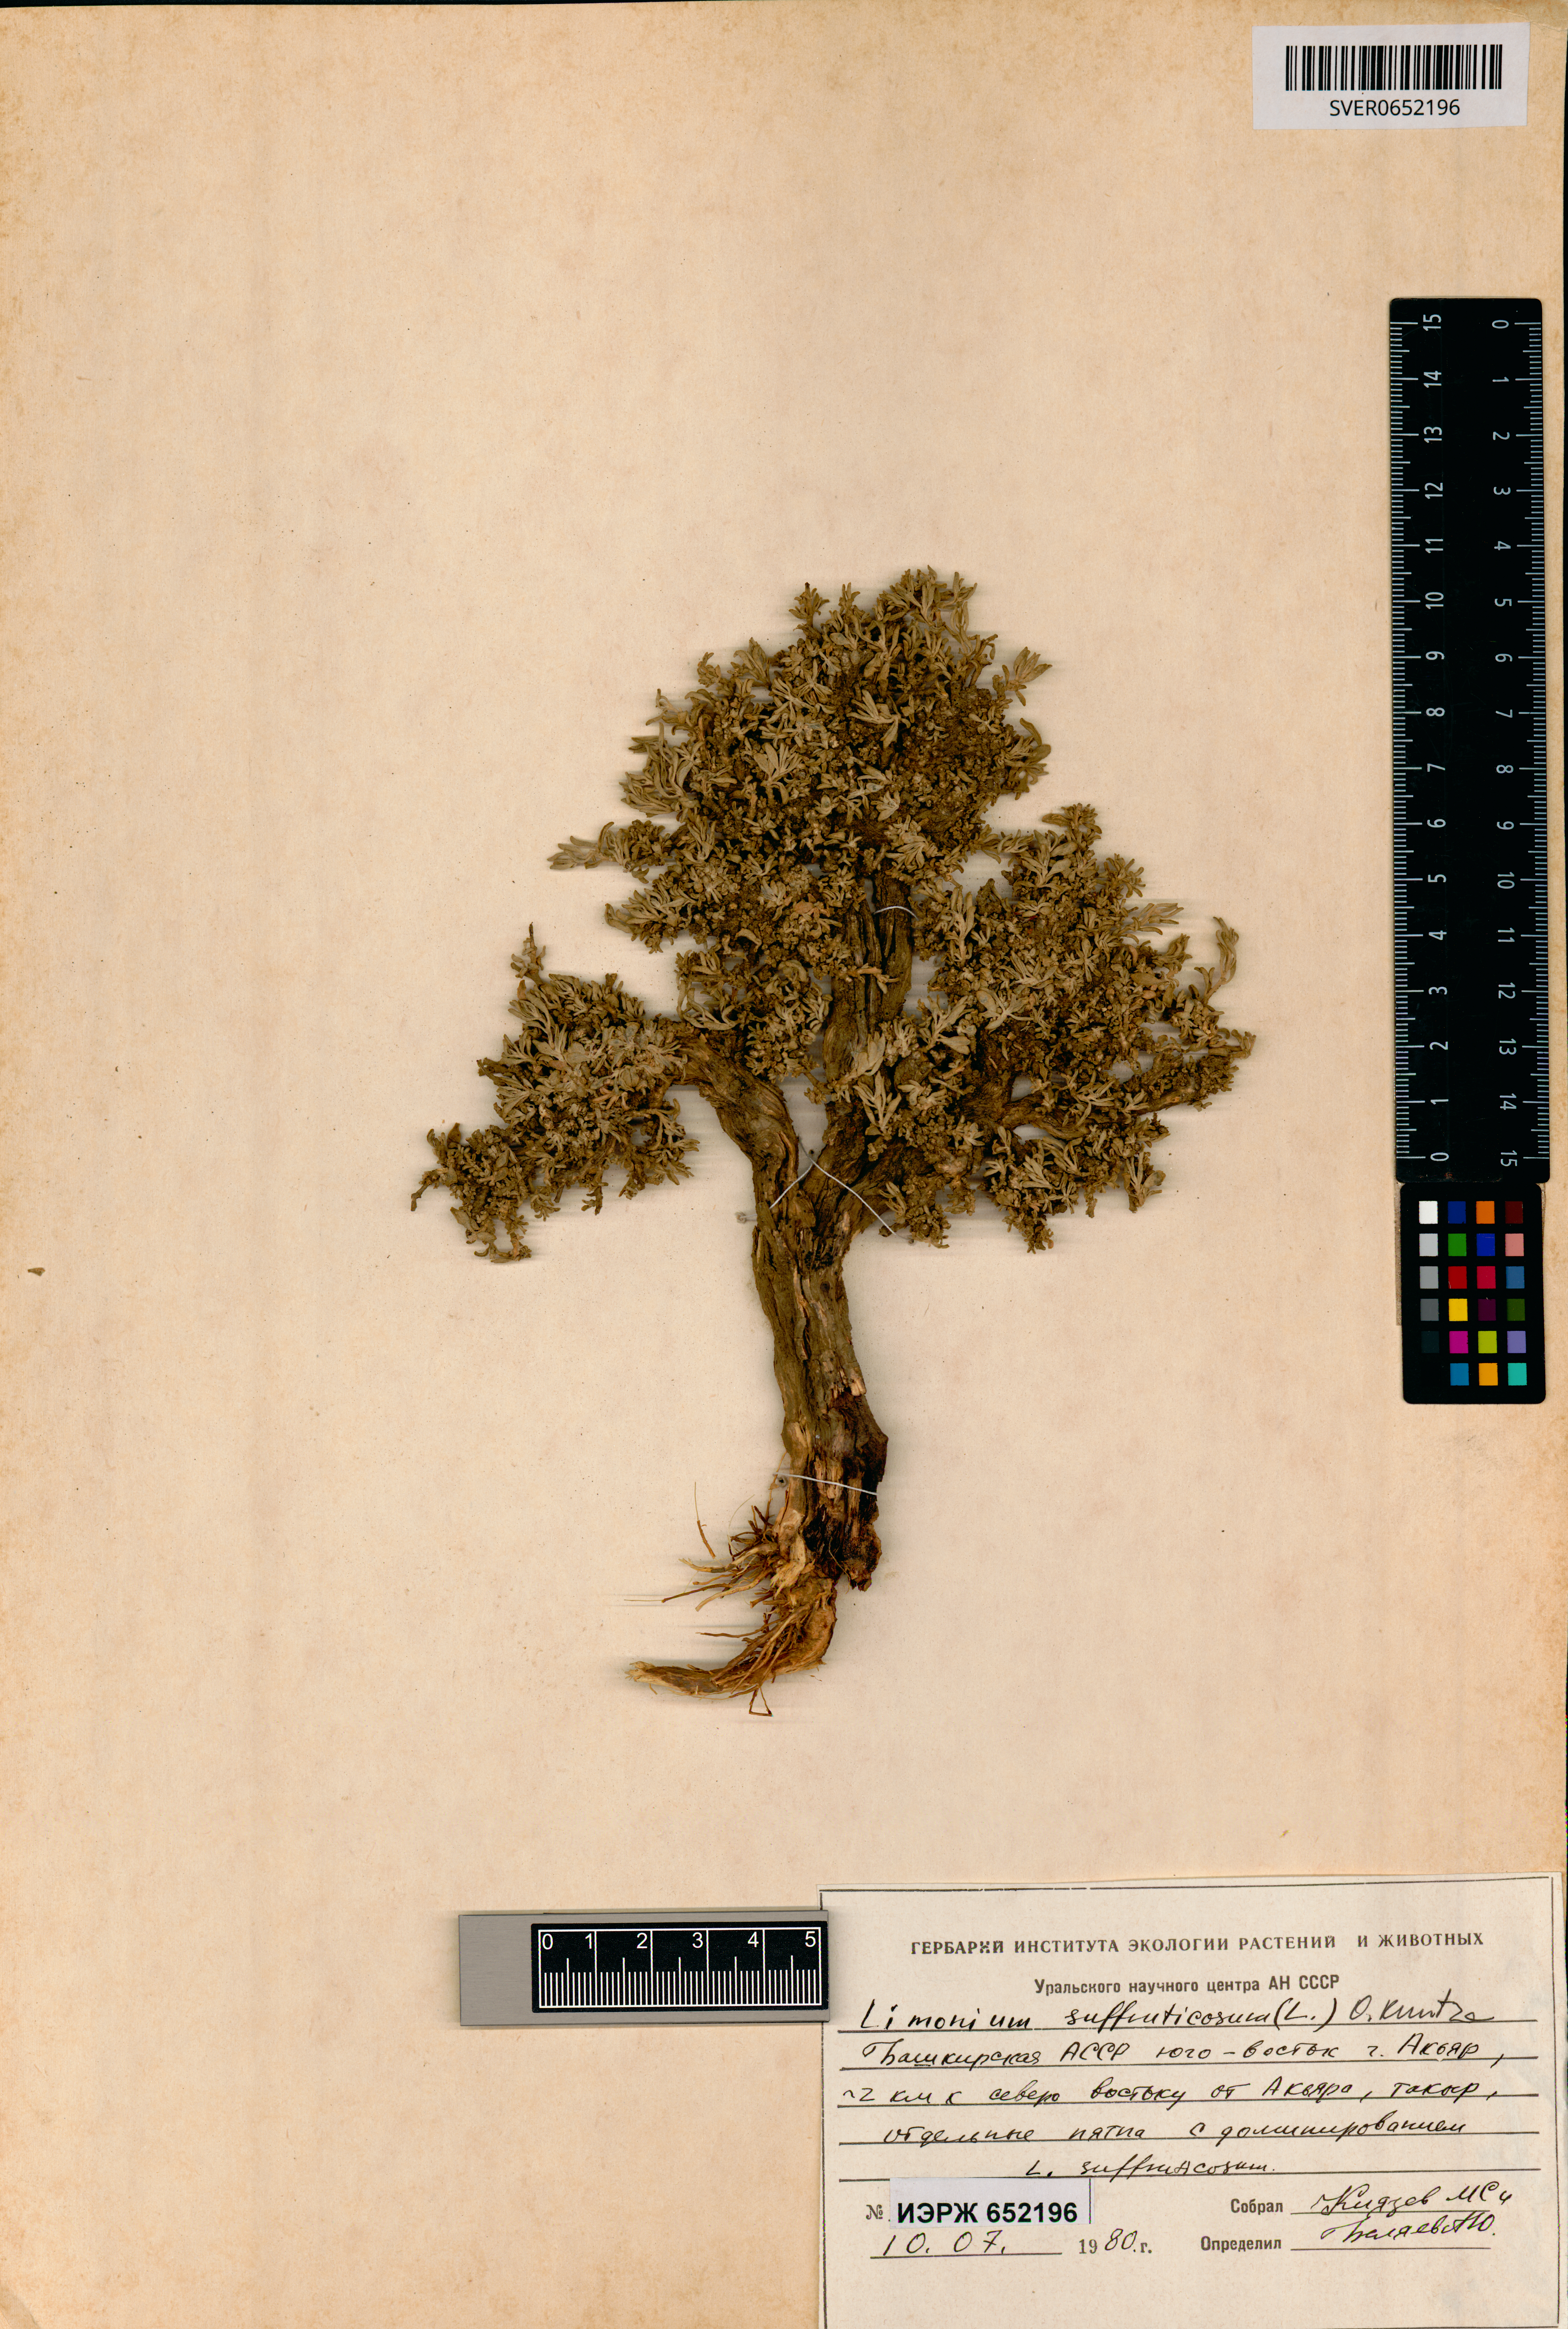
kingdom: Plantae
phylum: Tracheophyta
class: Magnoliopsida
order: Caryophyllales
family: Plumbaginaceae
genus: Limonium
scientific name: Limonium suffruticosum
